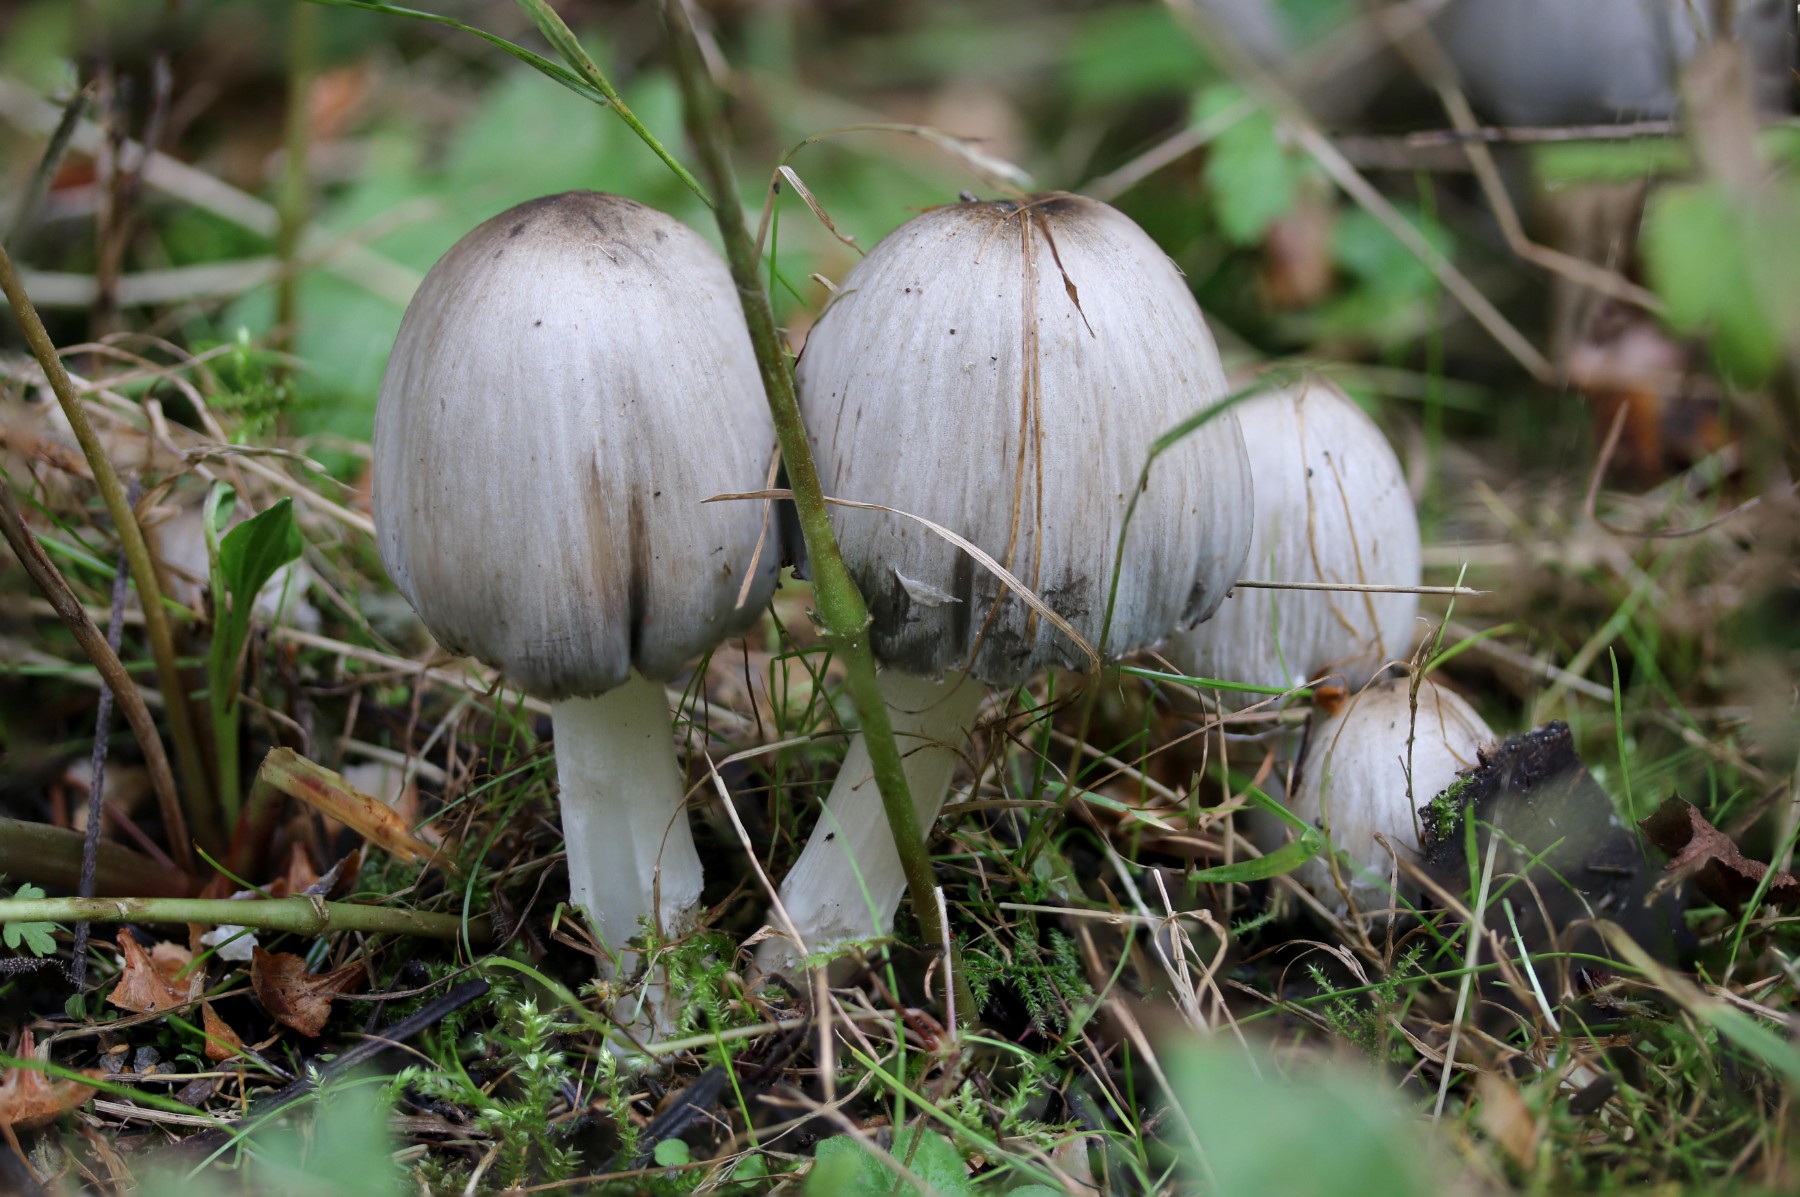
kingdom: Fungi
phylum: Basidiomycota
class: Agaricomycetes
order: Agaricales
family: Psathyrellaceae
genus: Coprinopsis
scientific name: Coprinopsis atramentaria
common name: almindelig blækhat
